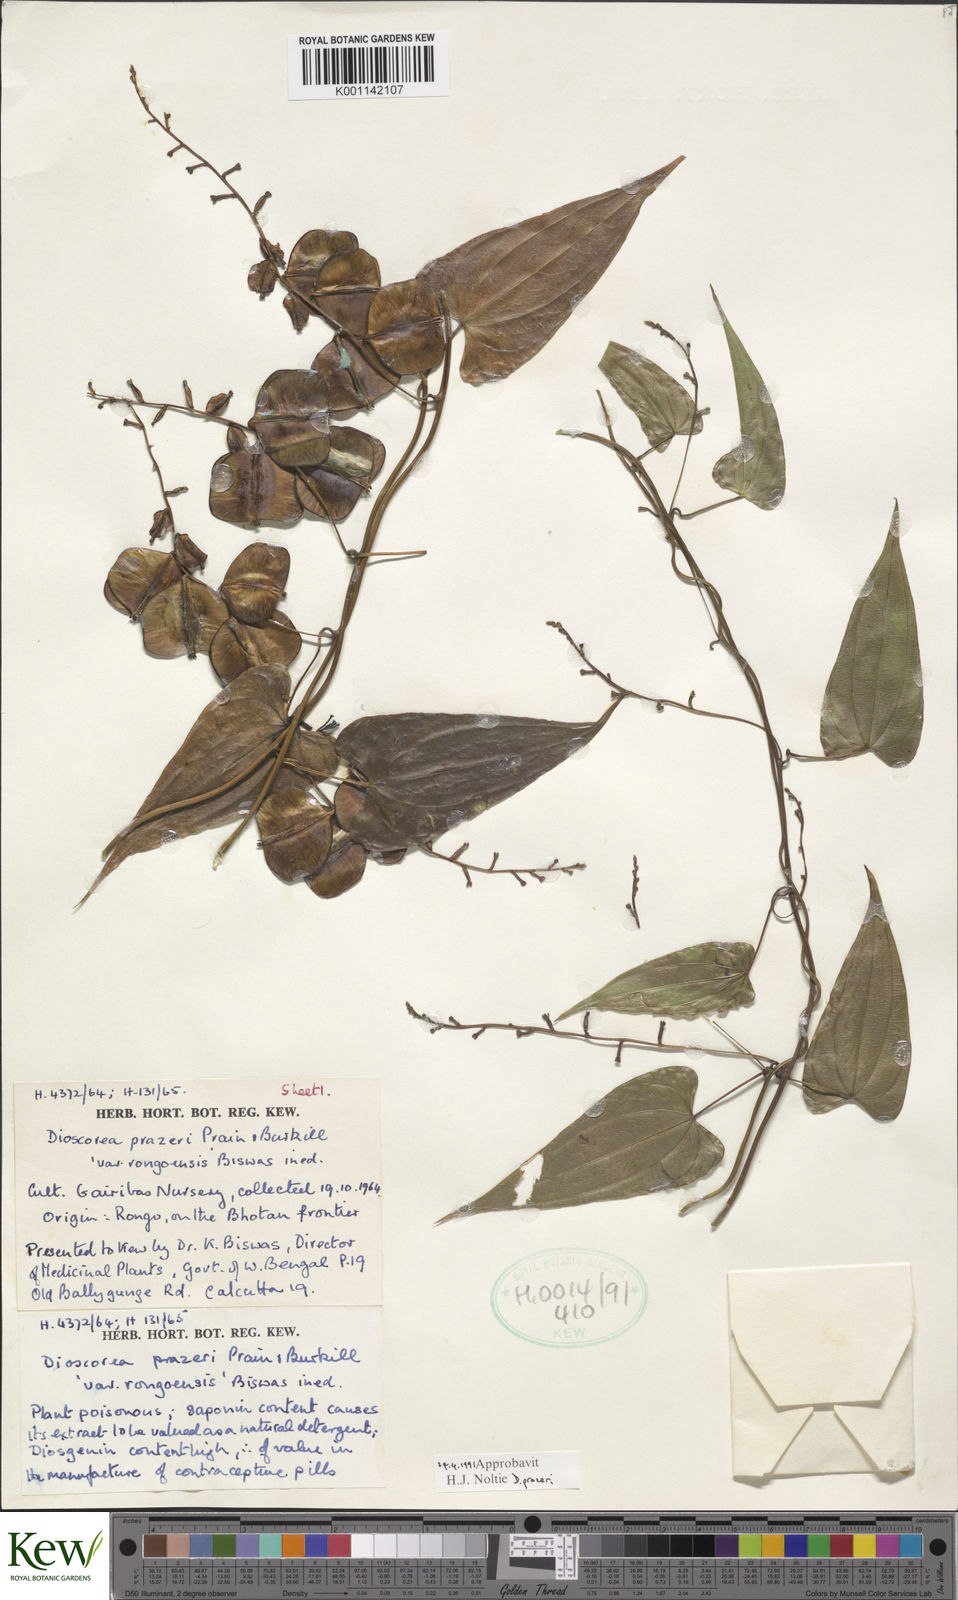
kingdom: Plantae
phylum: Tracheophyta
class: Liliopsida
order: Dioscoreales
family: Dioscoreaceae
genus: Dioscorea
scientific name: Dioscorea prazeri
